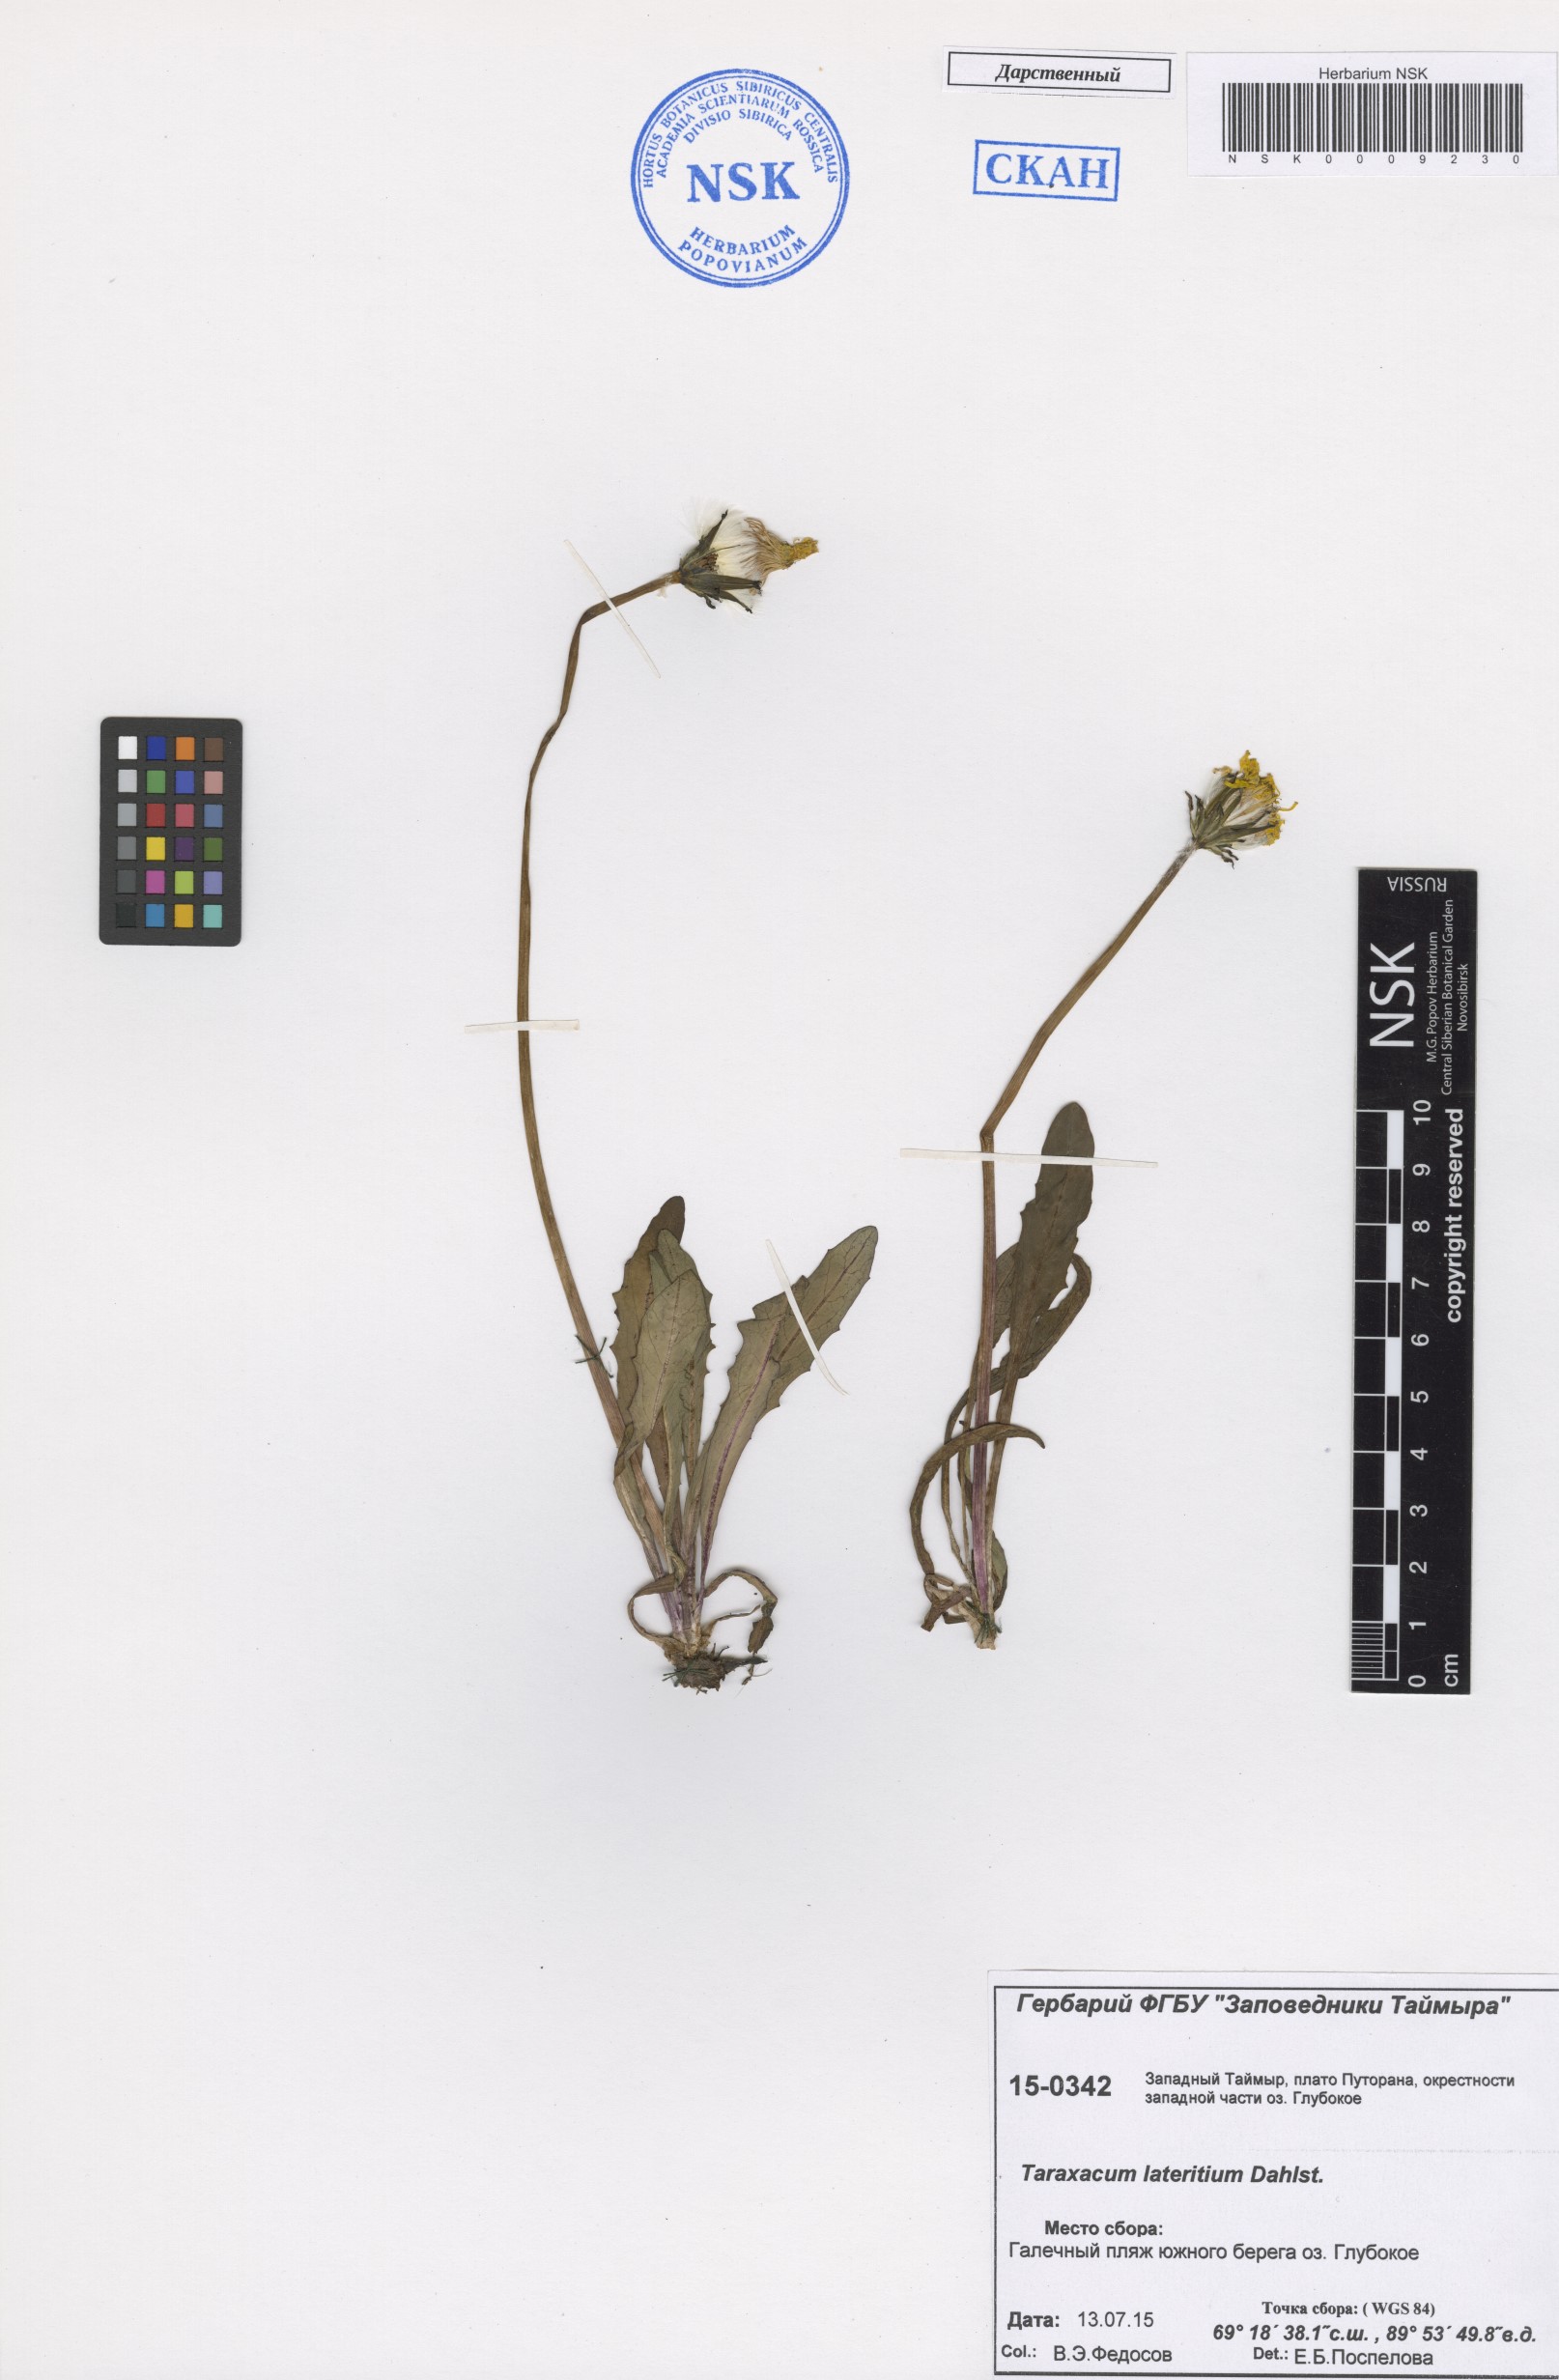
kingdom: Plantae
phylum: Tracheophyta
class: Magnoliopsida
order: Asterales
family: Asteraceae
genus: Taraxacum
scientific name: Taraxacum ceratophorum
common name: Horn-bearing dandelion
